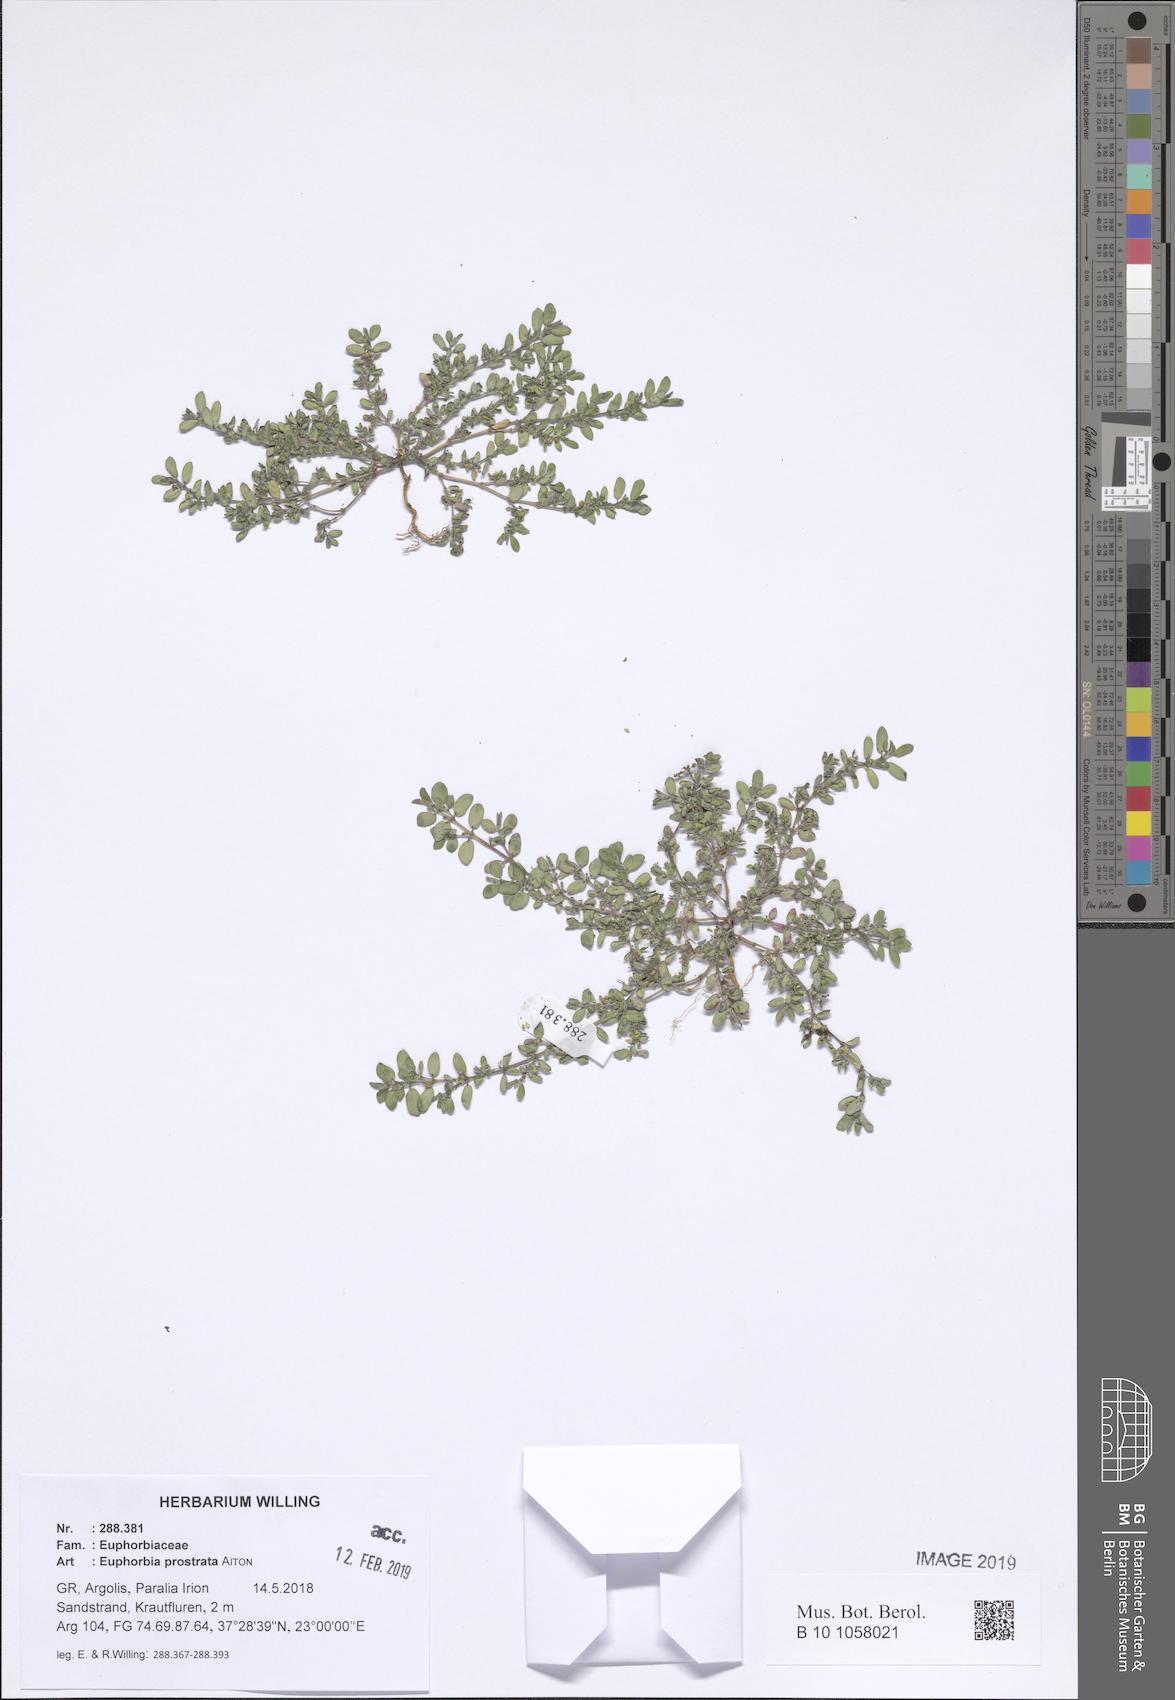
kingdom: Plantae
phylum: Tracheophyta
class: Magnoliopsida
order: Malpighiales
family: Euphorbiaceae
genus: Euphorbia
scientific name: Euphorbia prostrata
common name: Prostrate sandmat
